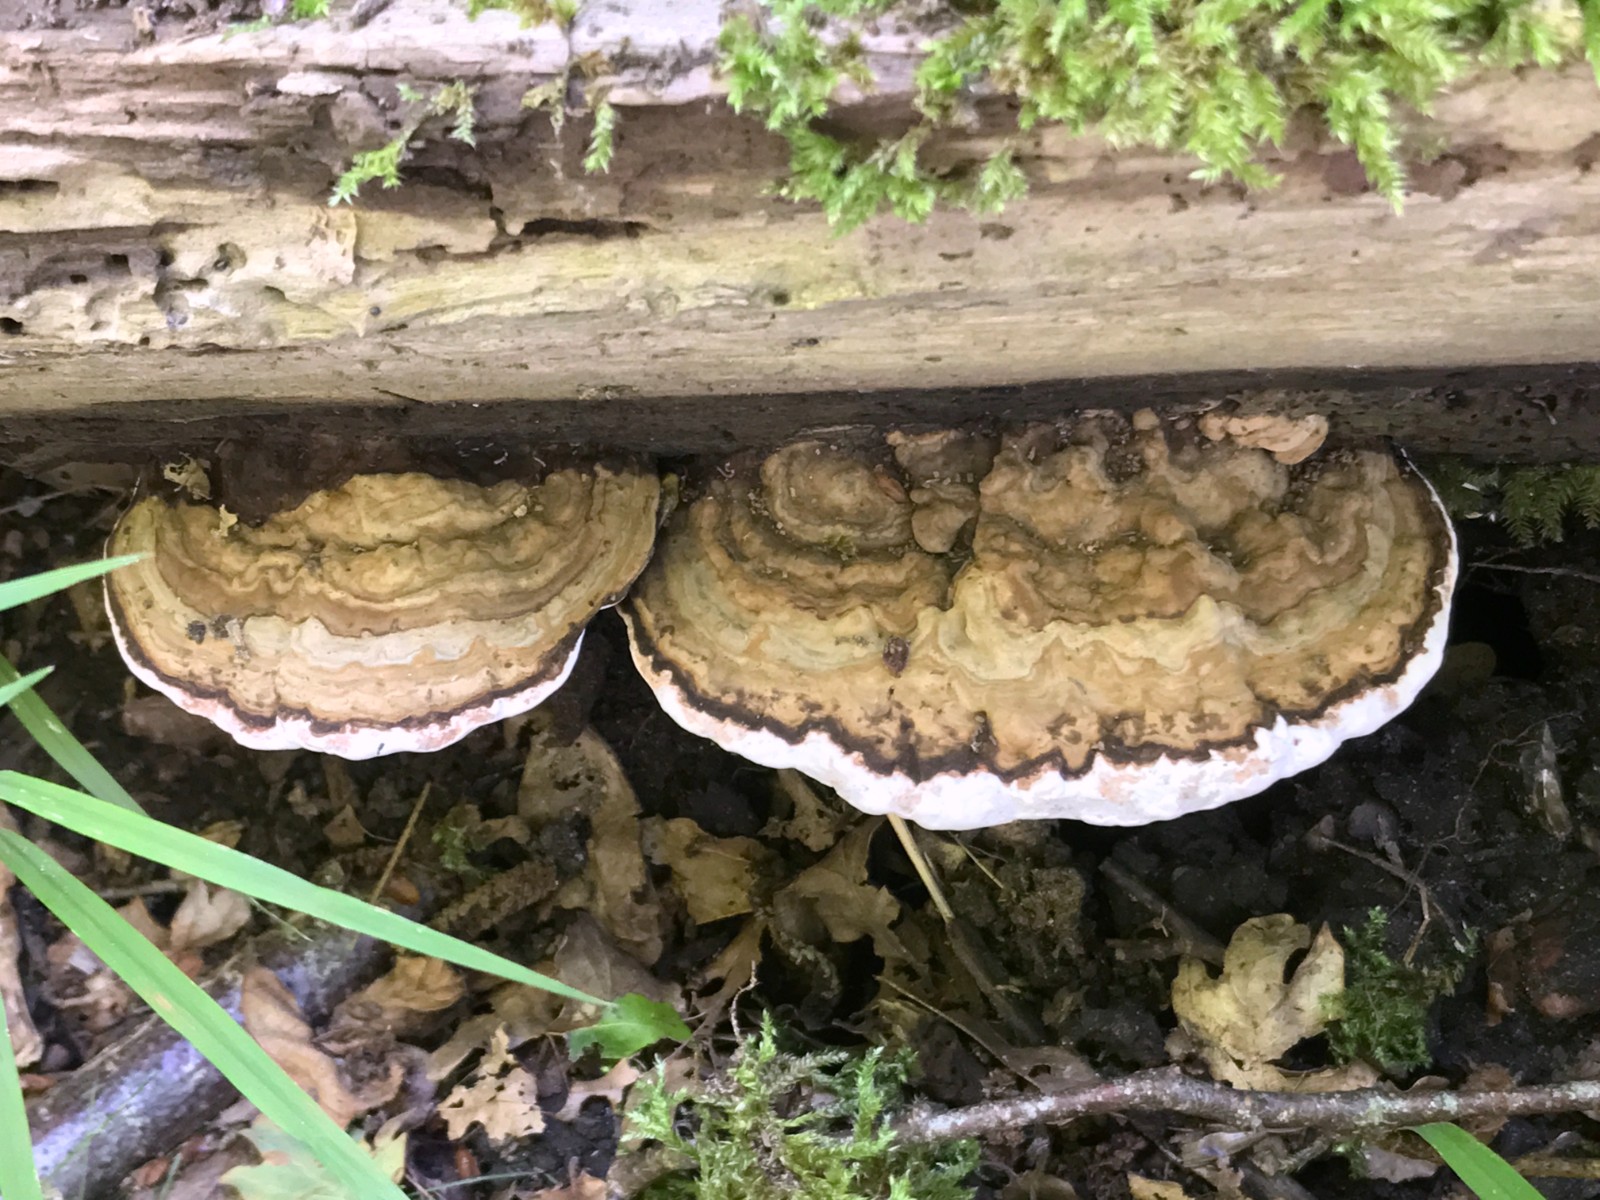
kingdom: Fungi
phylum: Basidiomycota
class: Agaricomycetes
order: Polyporales
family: Polyporaceae
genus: Ganoderma
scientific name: Ganoderma applanatum
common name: flad lakporesvamp
